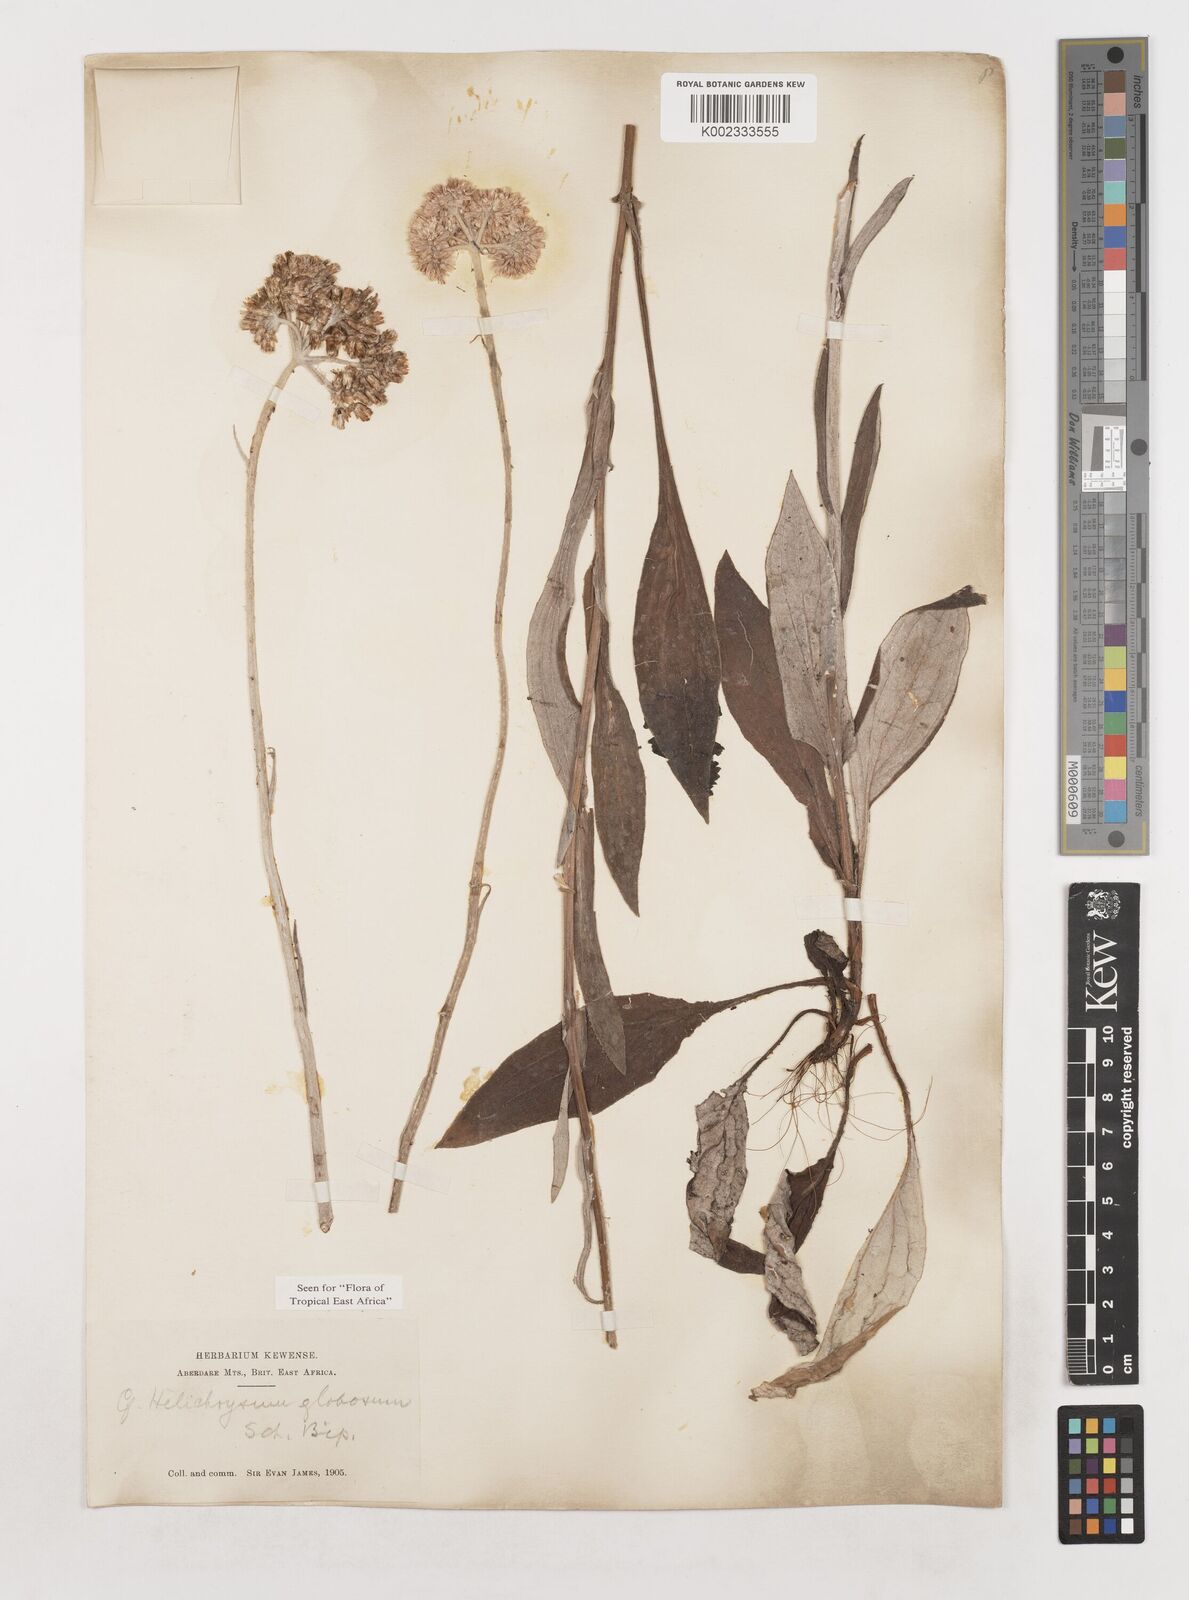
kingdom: Plantae
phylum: Tracheophyta
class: Magnoliopsida
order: Asterales
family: Asteraceae
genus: Helichrysum
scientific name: Helichrysum globosum
